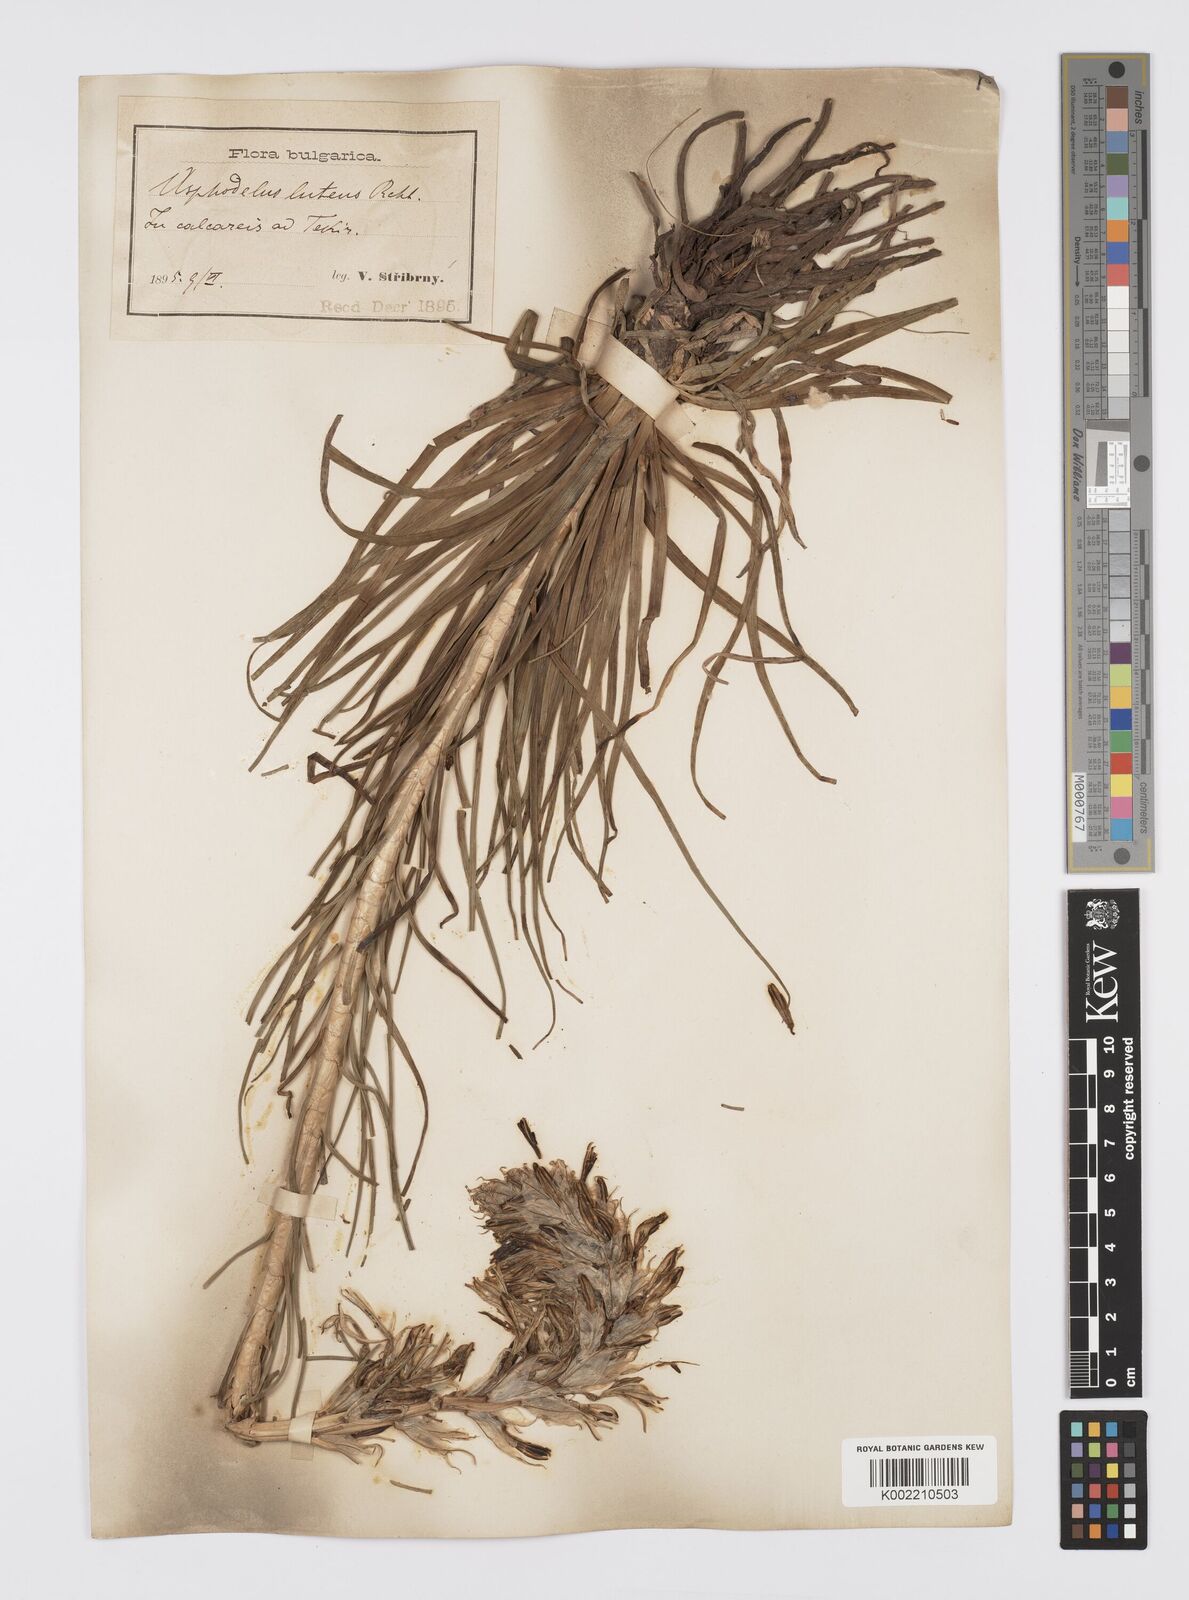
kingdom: Plantae
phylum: Tracheophyta
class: Liliopsida
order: Asparagales
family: Asphodelaceae
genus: Asphodeline
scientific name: Asphodeline lutea
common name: Yellow asphodel
